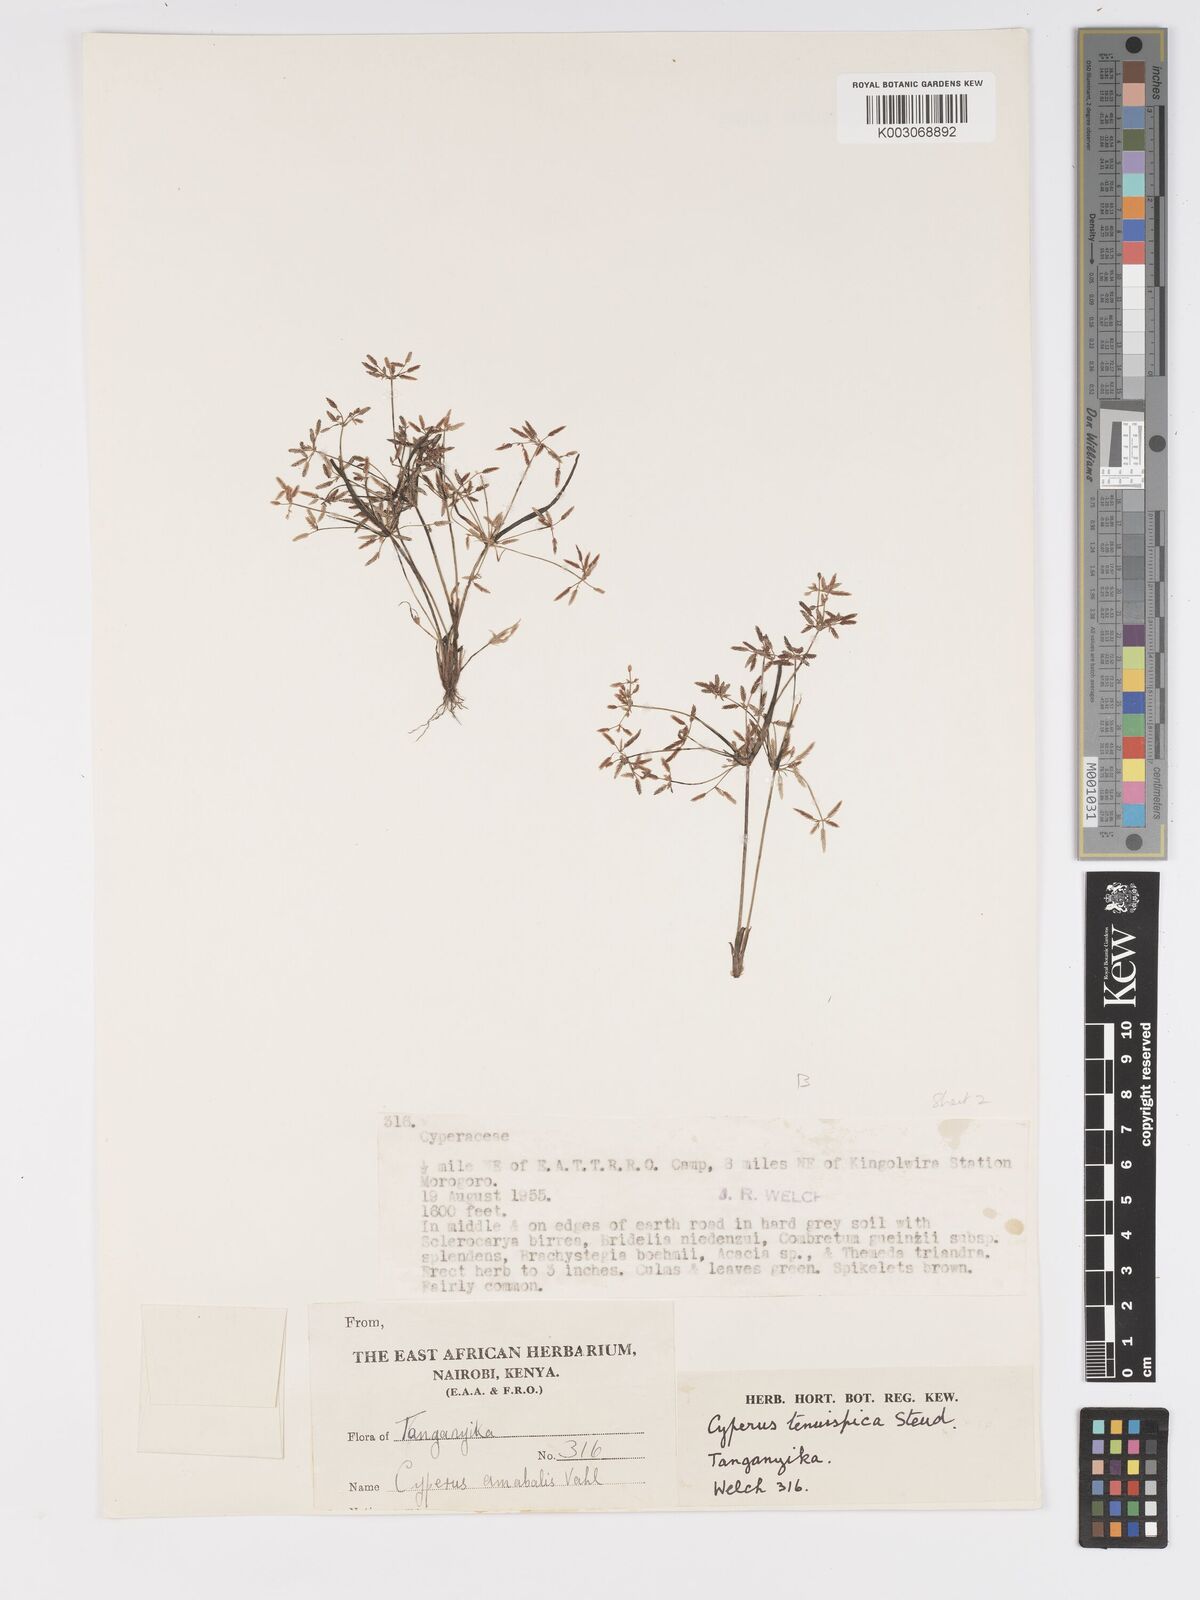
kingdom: Plantae
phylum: Tracheophyta
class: Liliopsida
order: Poales
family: Cyperaceae
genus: Cyperus
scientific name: Cyperus tenuispica
